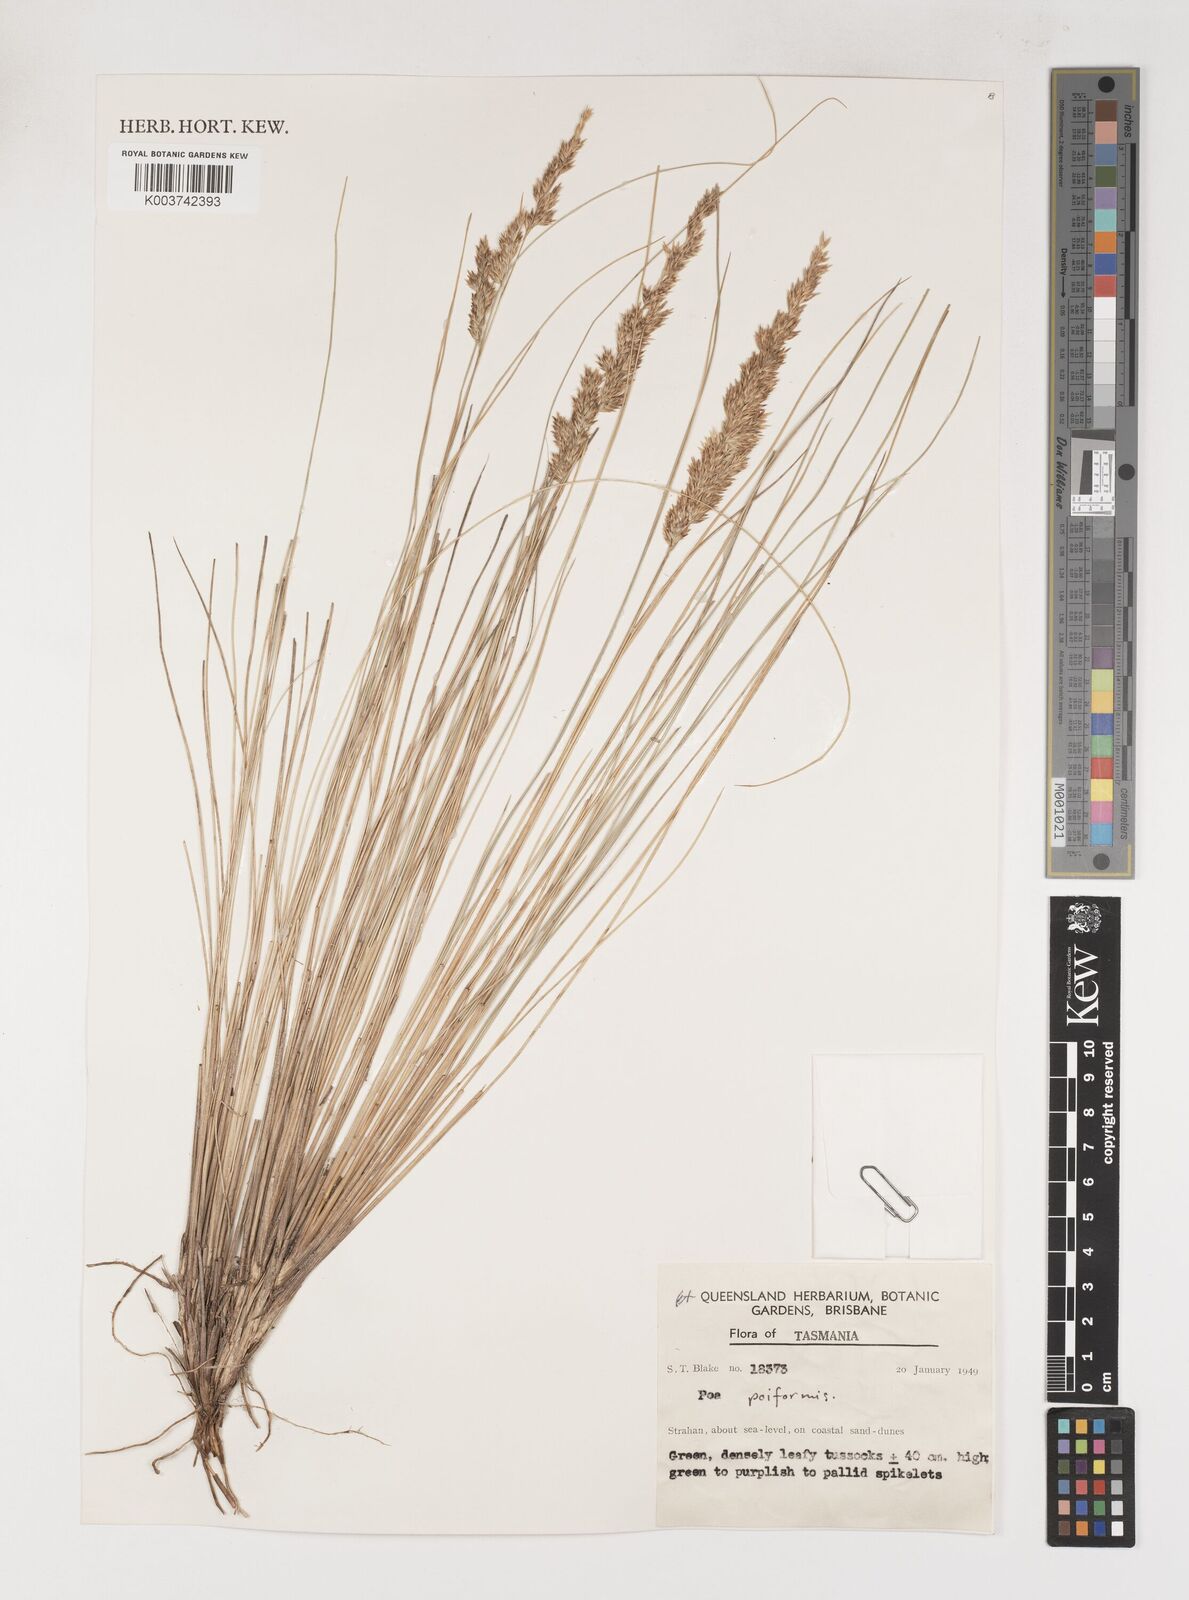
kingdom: Plantae
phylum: Tracheophyta
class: Liliopsida
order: Poales
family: Poaceae
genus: Poa
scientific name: Poa poiformis
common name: Tussock poa
